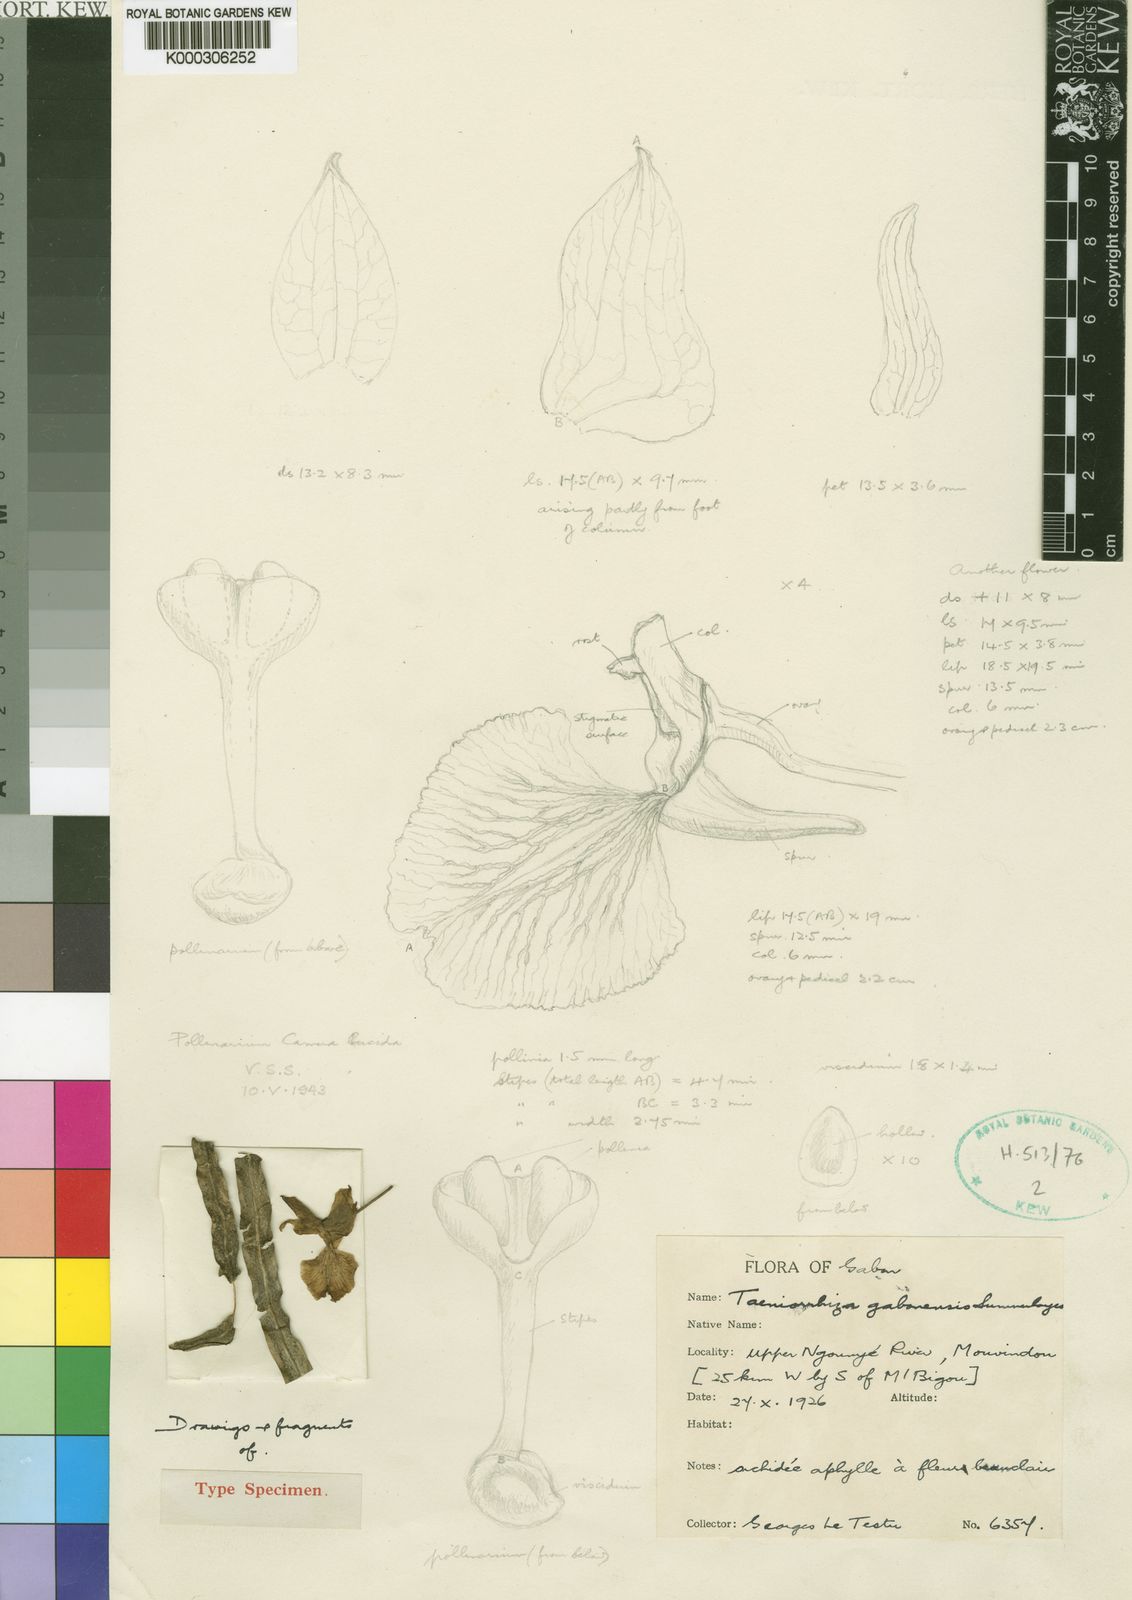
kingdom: Plantae
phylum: Tracheophyta
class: Liliopsida
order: Asparagales
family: Orchidaceae
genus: Taeniorrhiza
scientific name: Taeniorrhiza gabonensis
